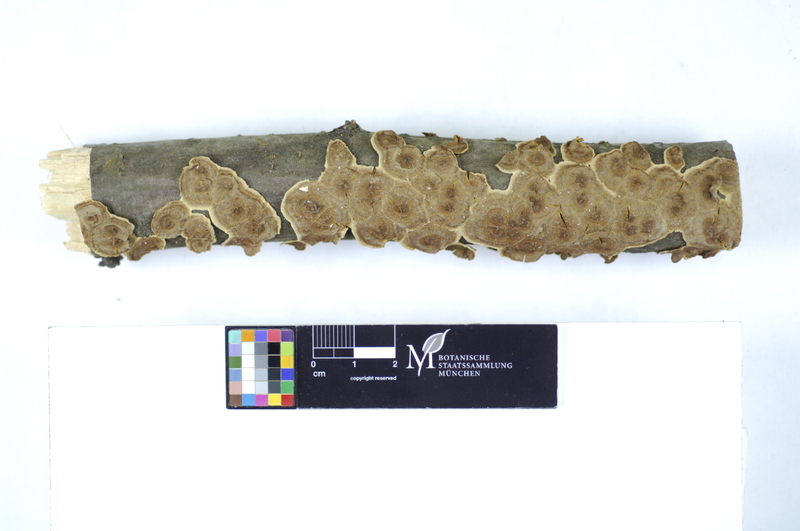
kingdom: Plantae
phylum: Tracheophyta
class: Magnoliopsida
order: Fagales
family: Betulaceae
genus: Corylus
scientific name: Corylus
